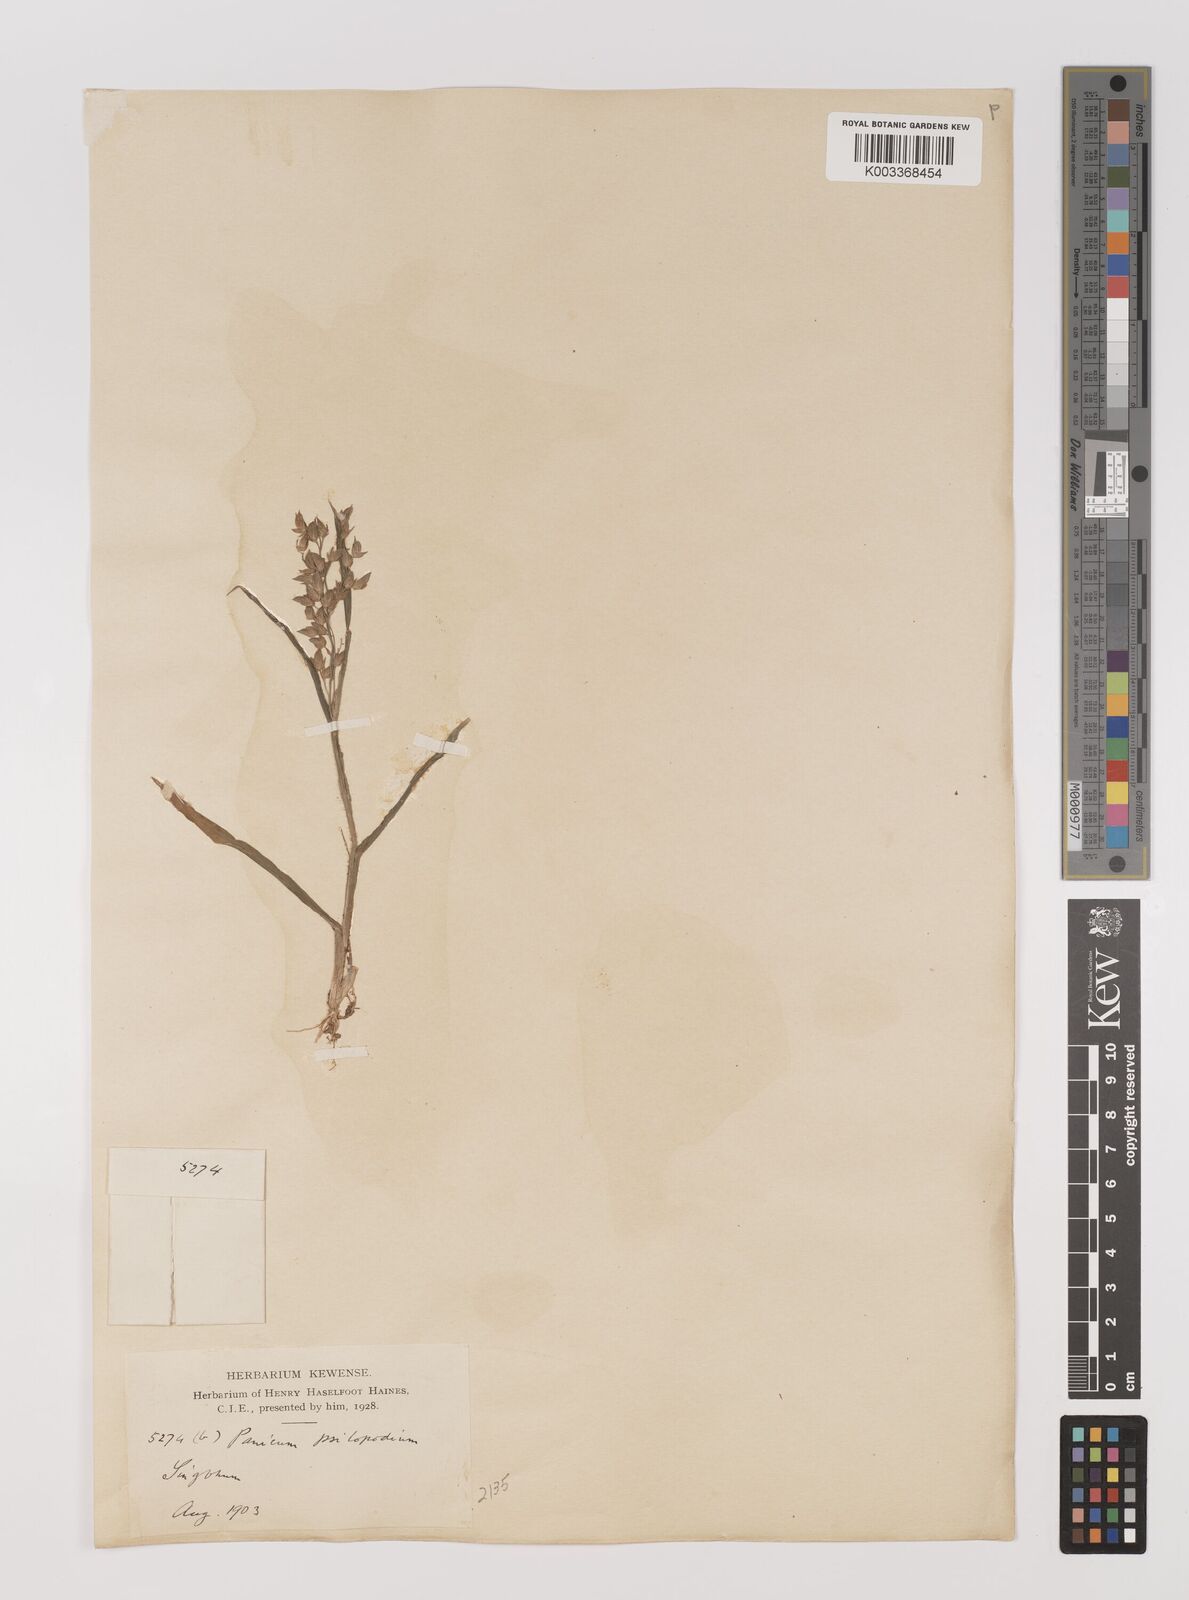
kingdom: Plantae
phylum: Tracheophyta
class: Liliopsida
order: Poales
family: Poaceae
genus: Panicum
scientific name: Panicum sumatrense
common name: Little millet
